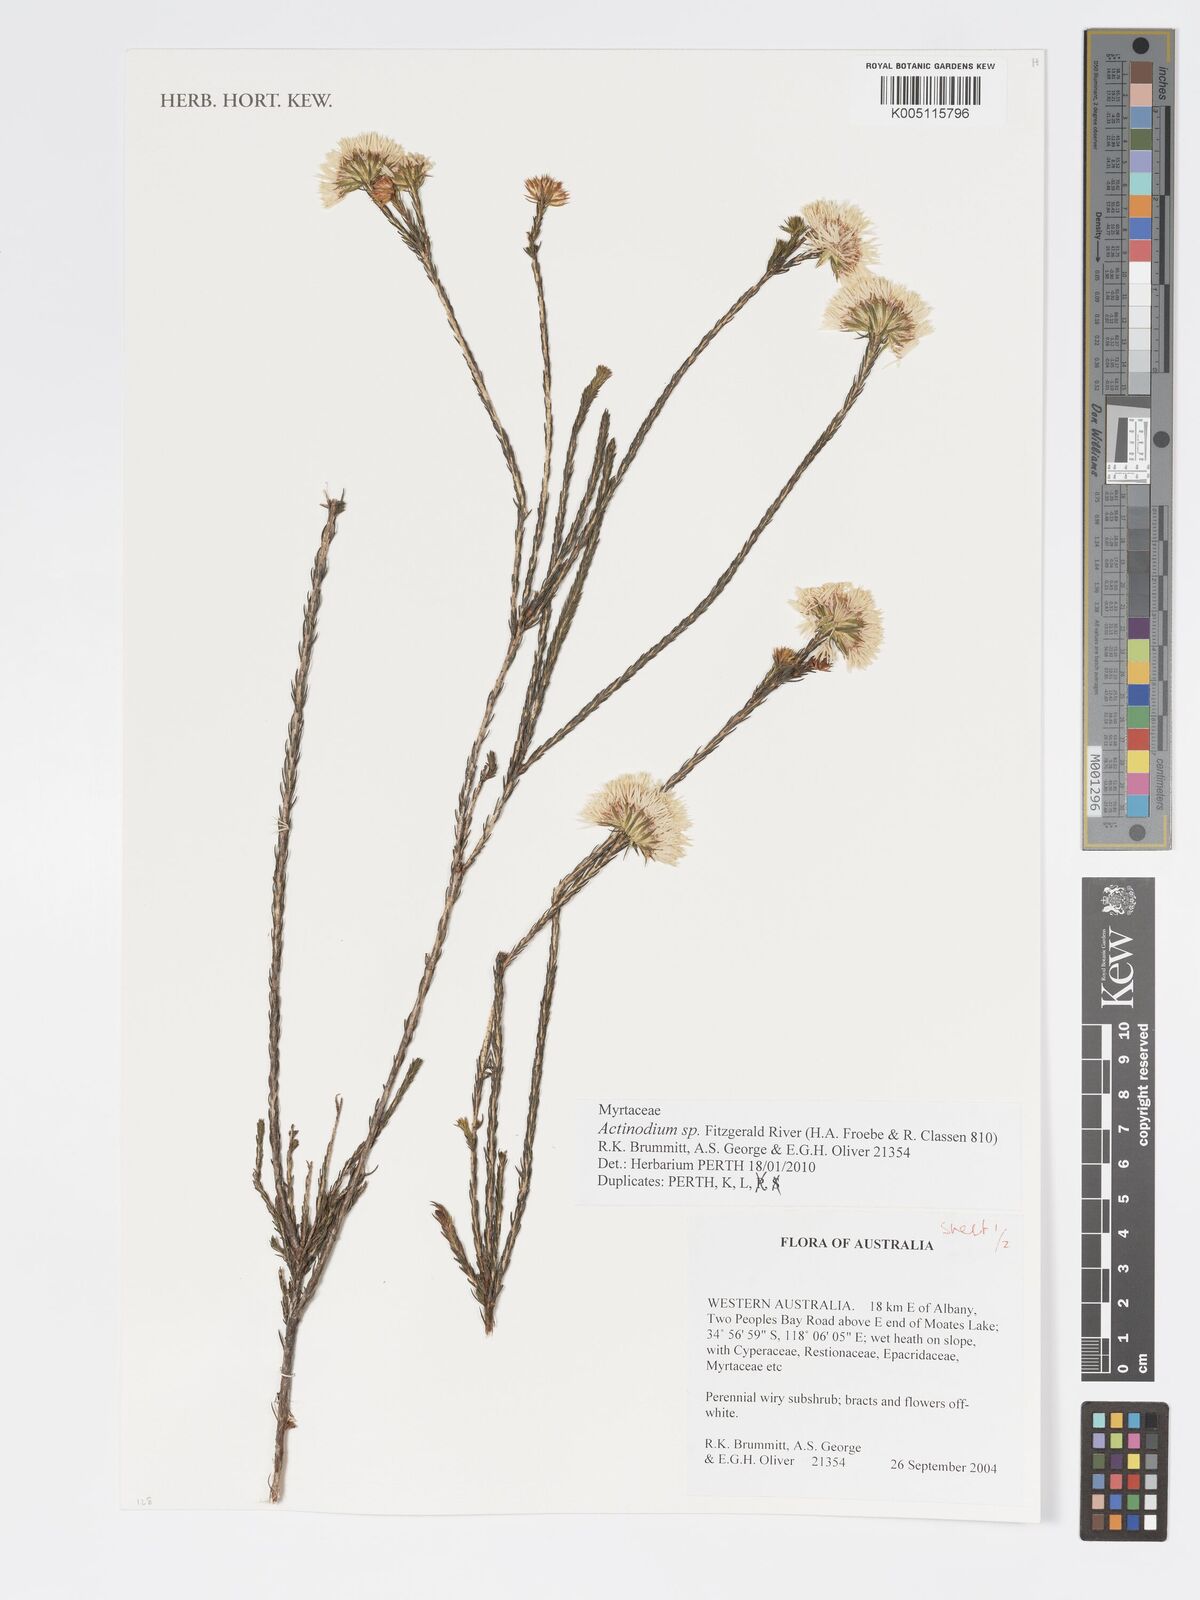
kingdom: Plantae
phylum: Tracheophyta
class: Magnoliopsida
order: Myrtales
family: Myrtaceae
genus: Actinodium
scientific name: Actinodium
